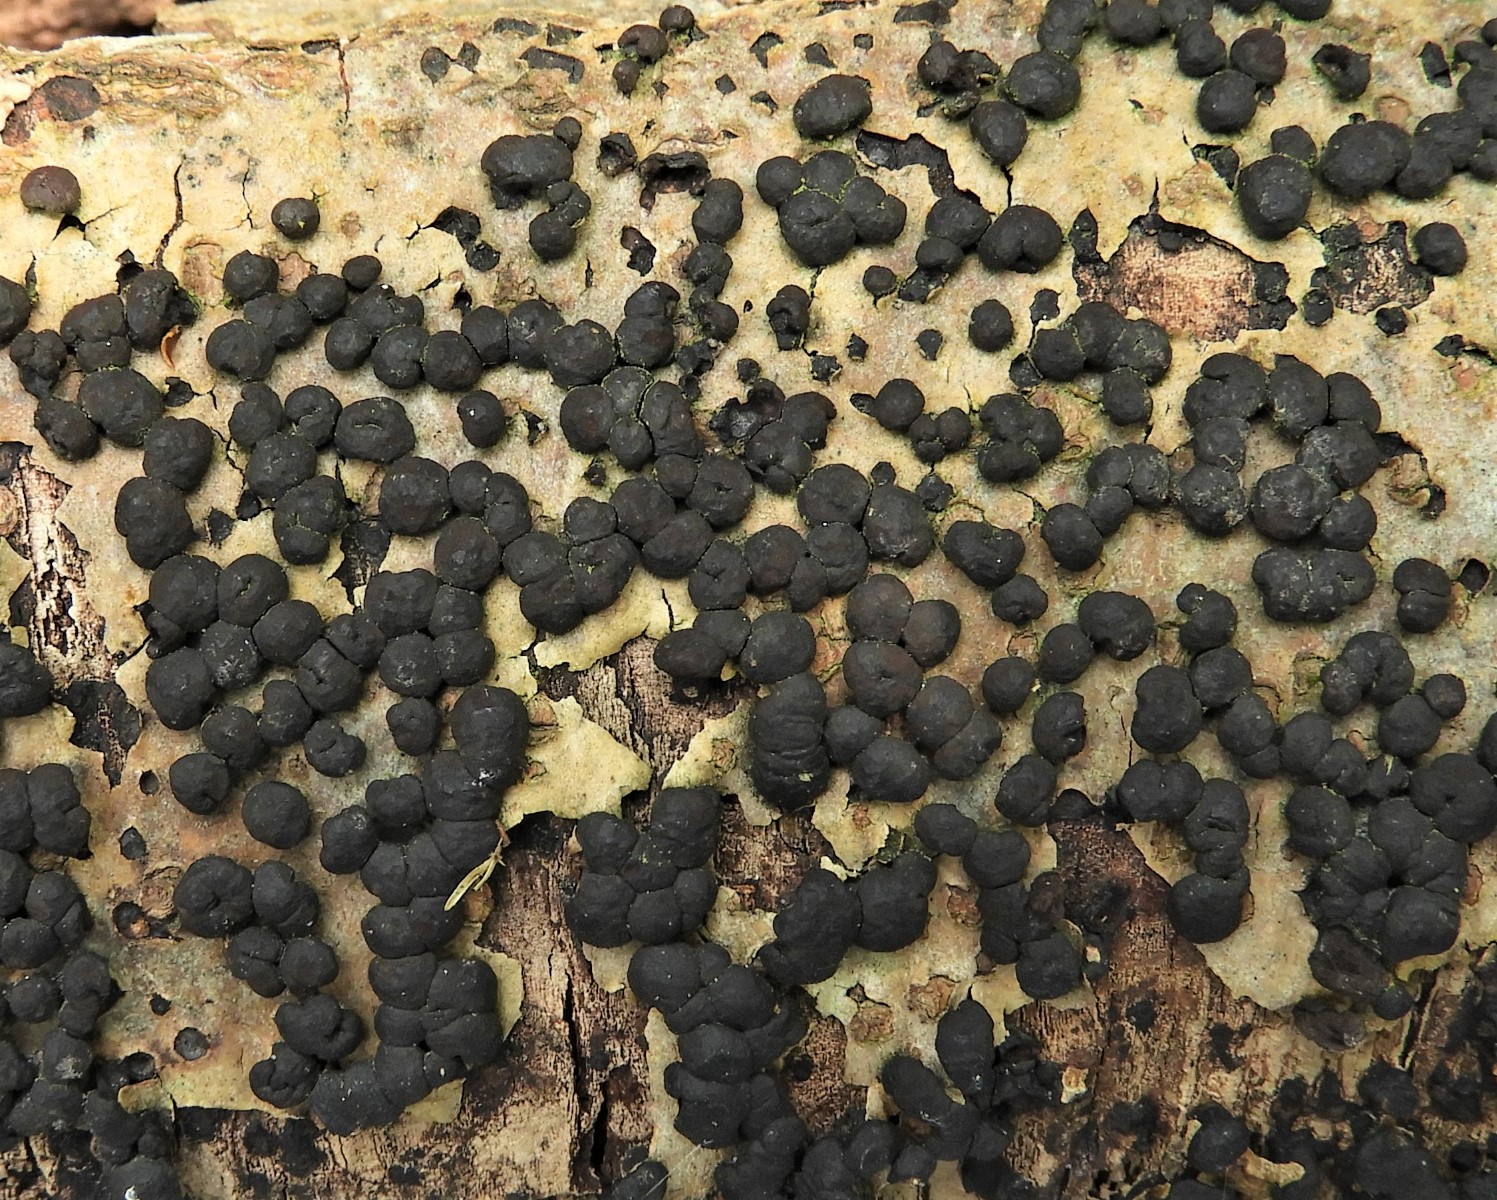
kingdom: Fungi
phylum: Ascomycota
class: Sordariomycetes
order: Xylariales
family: Hypoxylaceae
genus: Hypoxylon
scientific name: Hypoxylon fuscum
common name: kegleformet kulbær
